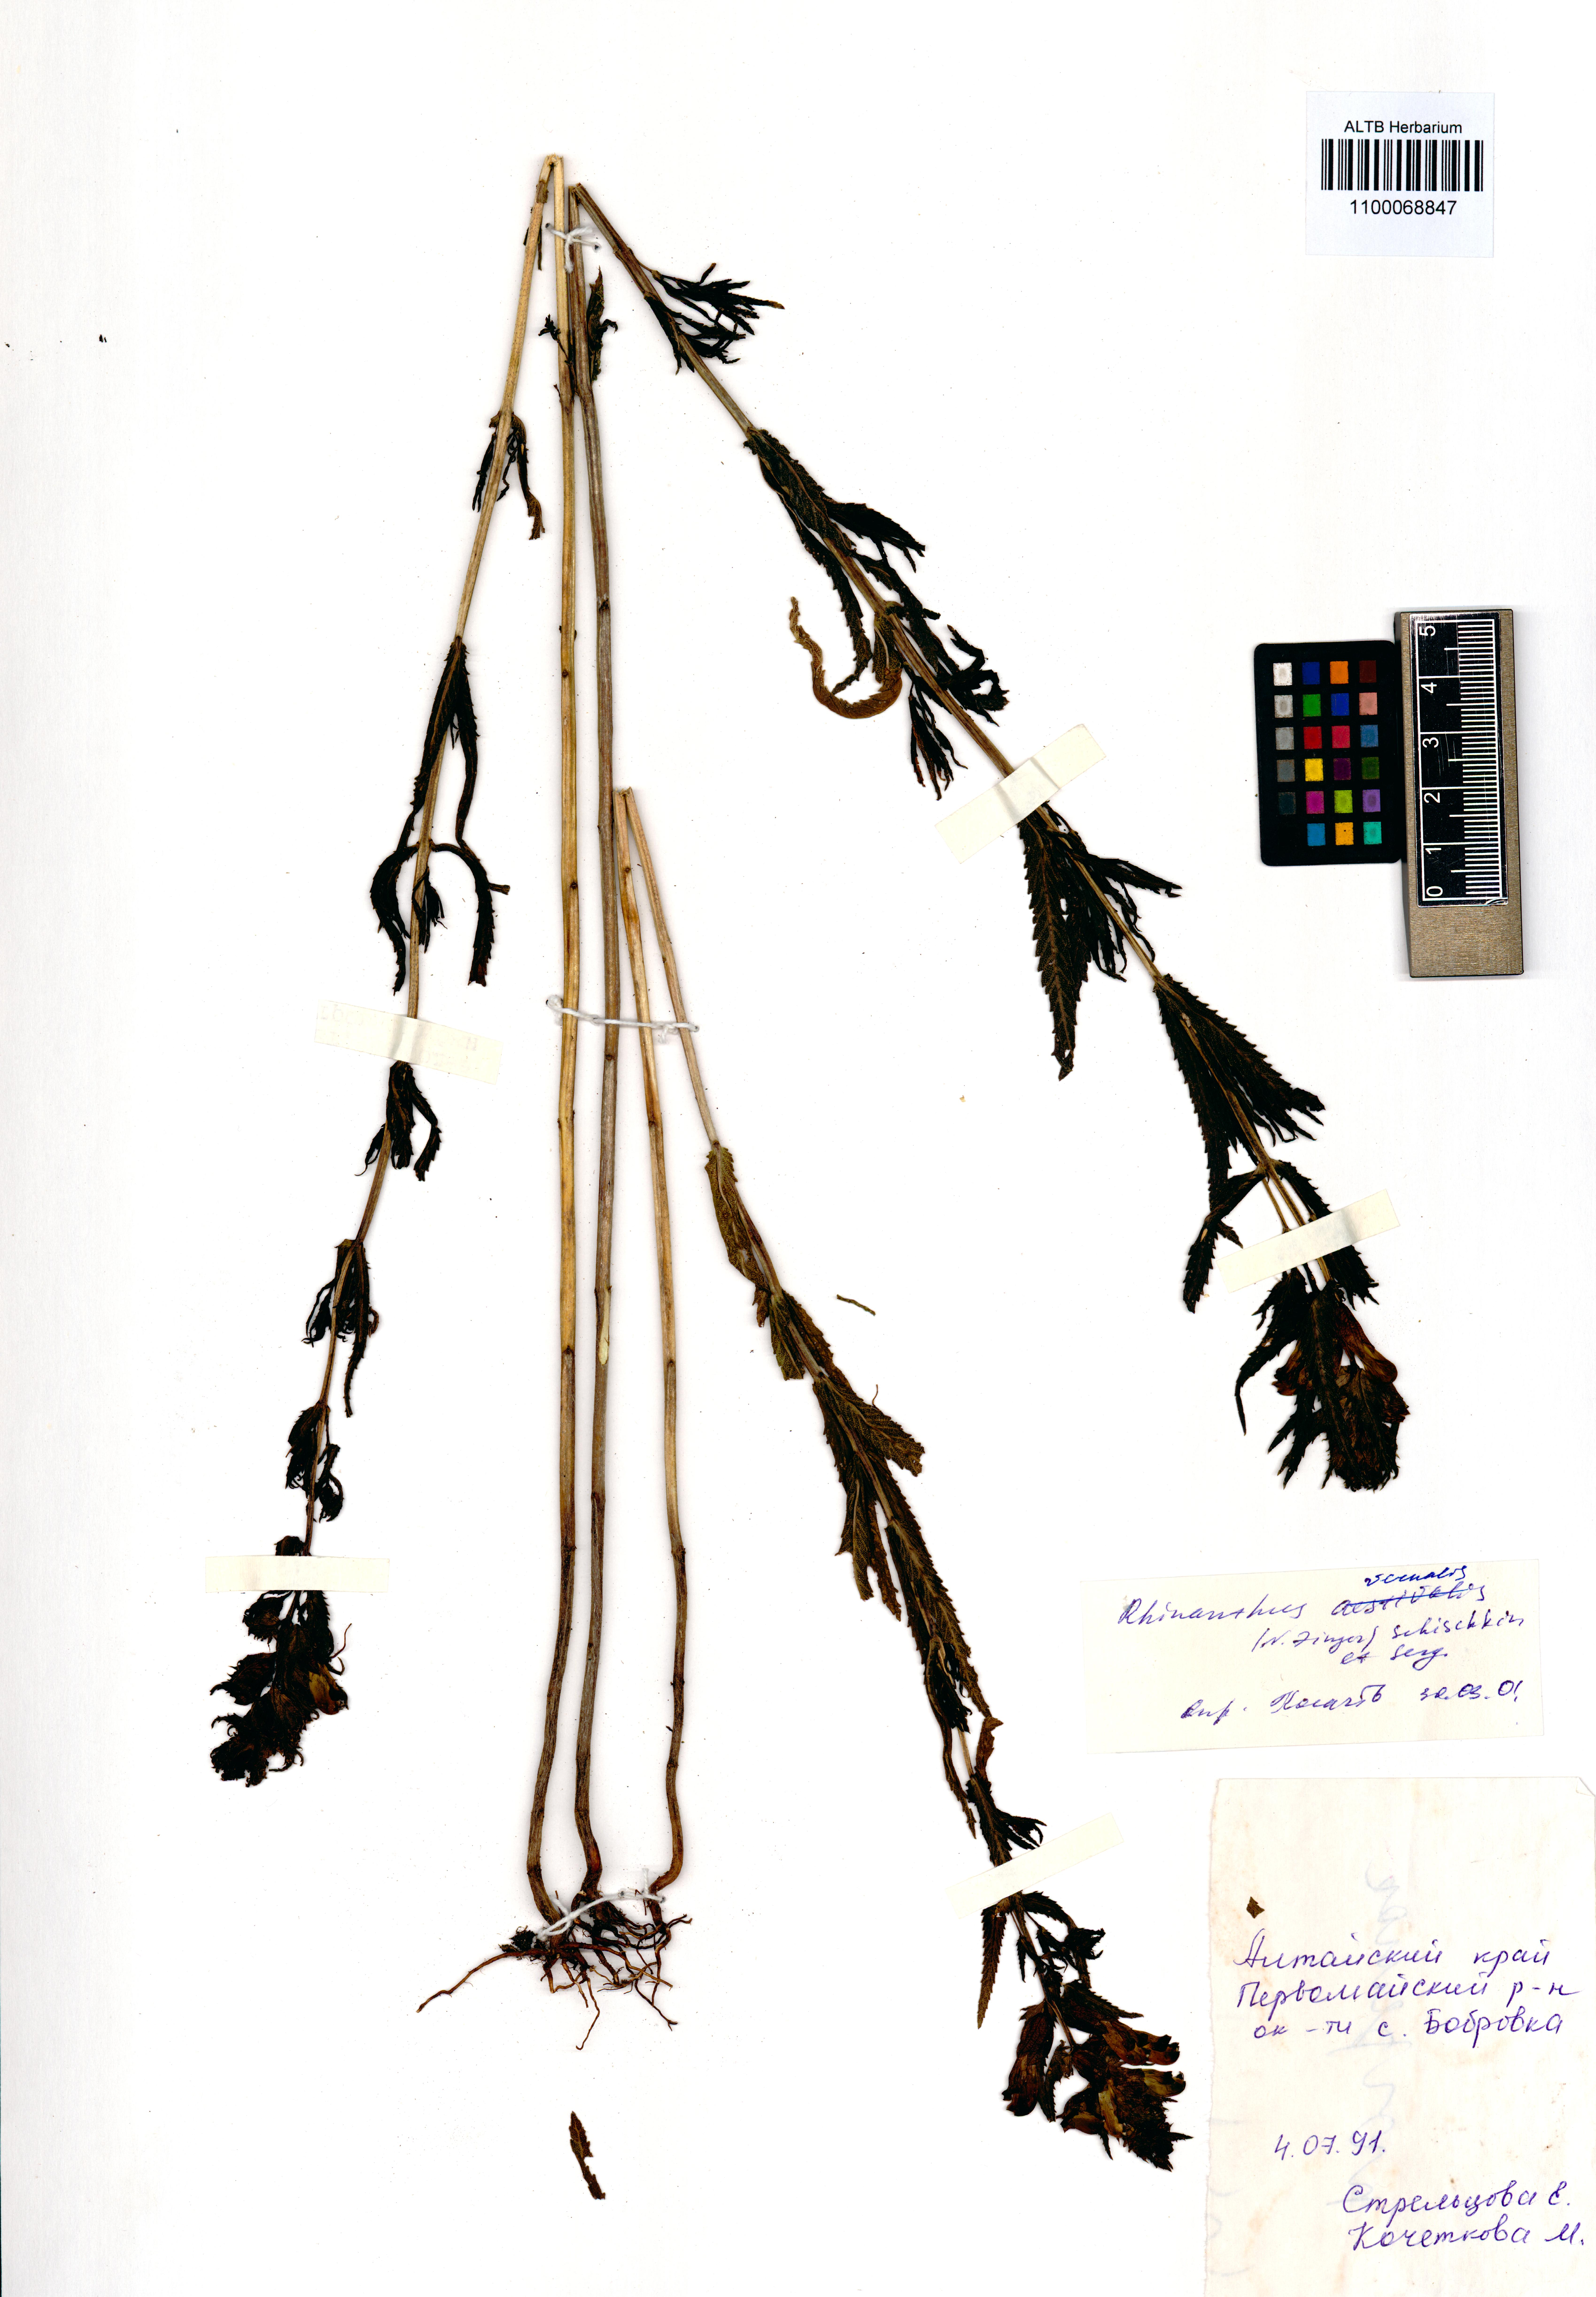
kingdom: Plantae
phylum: Tracheophyta
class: Magnoliopsida
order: Lamiales
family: Orobanchaceae
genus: Rhinanthus
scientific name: Rhinanthus serotinus
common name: Late-flowering yellow rattle
